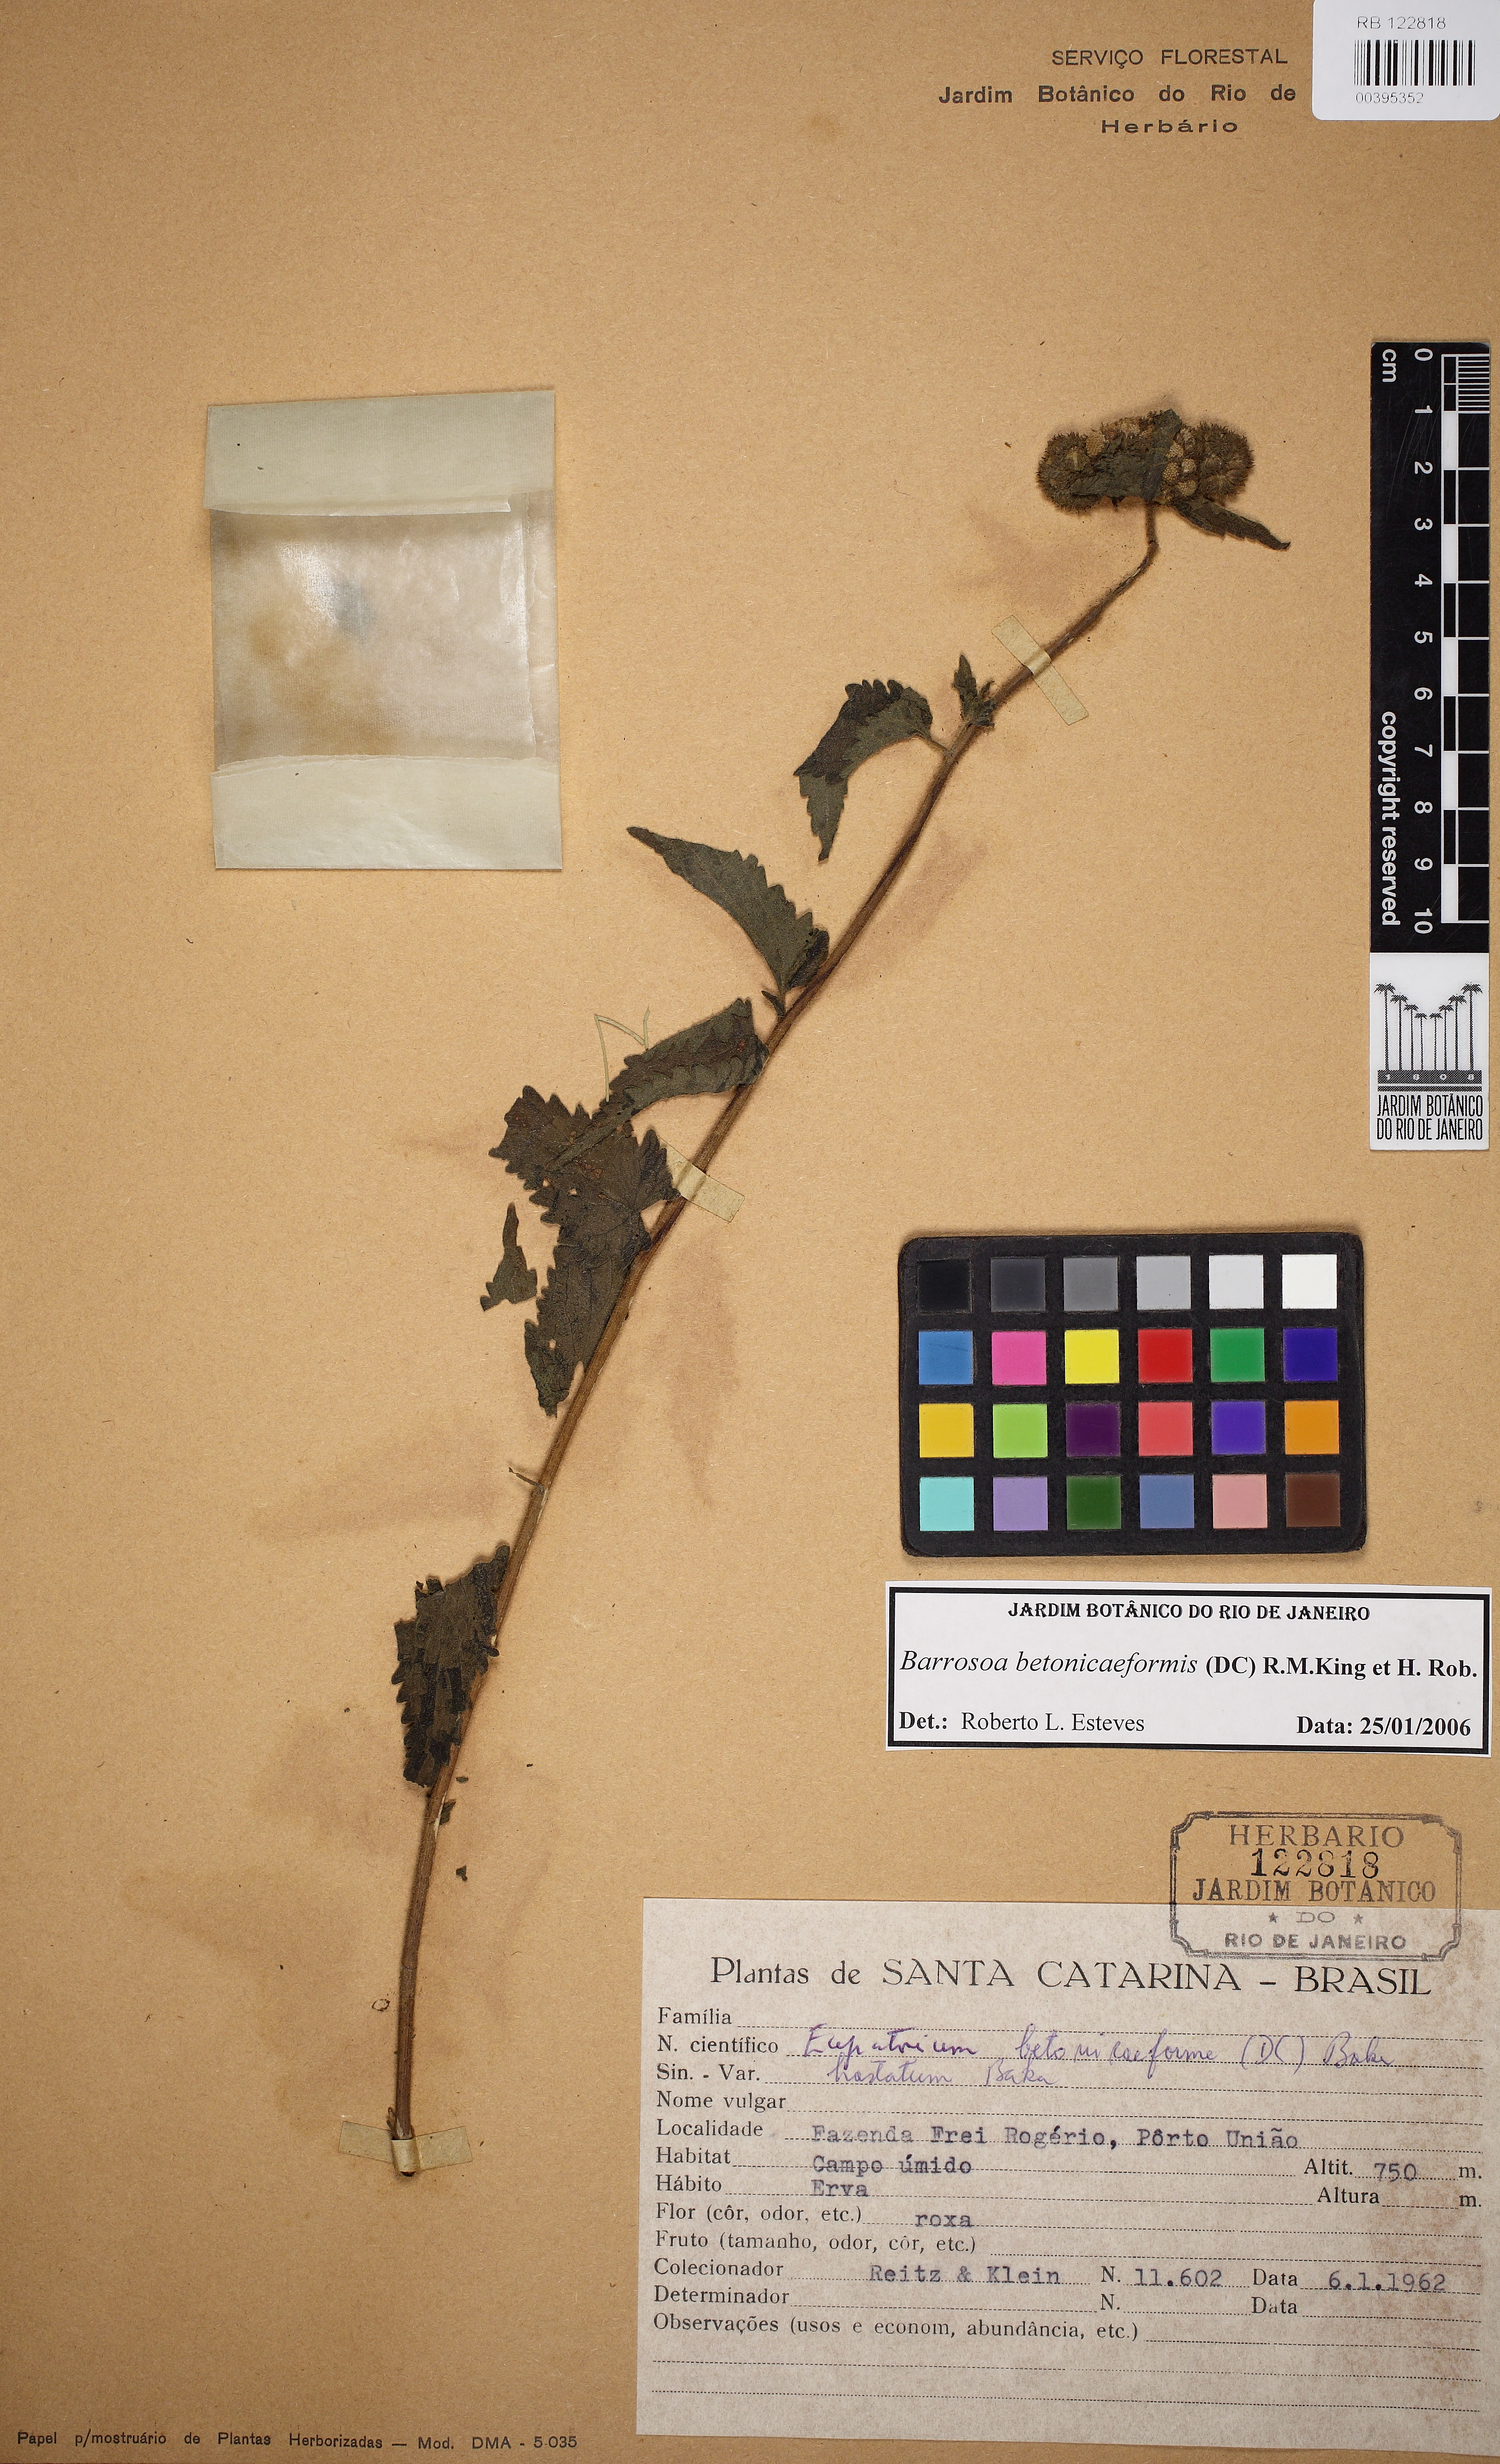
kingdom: Plantae
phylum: Tracheophyta
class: Magnoliopsida
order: Asterales
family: Asteraceae
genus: Barrosoa
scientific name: Barrosoa betoniciformis
